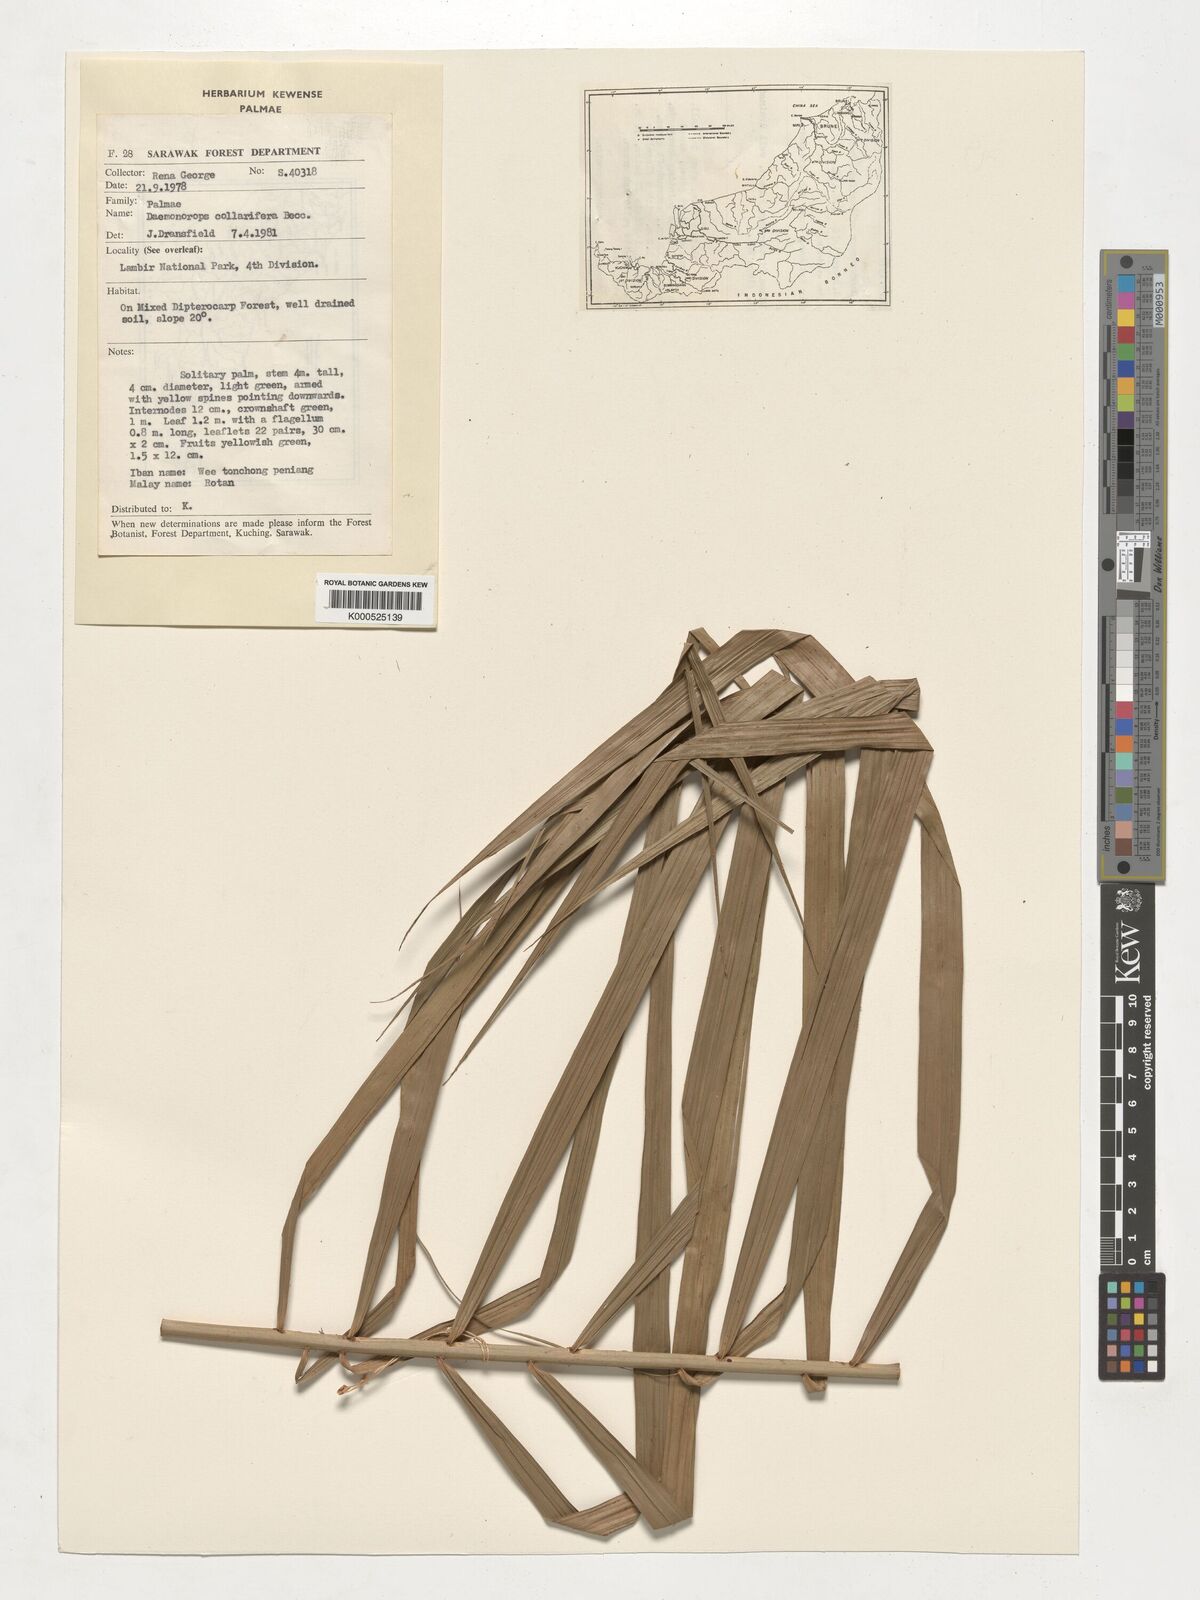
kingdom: Plantae
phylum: Tracheophyta
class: Liliopsida
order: Arecales
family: Arecaceae
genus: Calamus
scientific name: Calamus geniculatus
